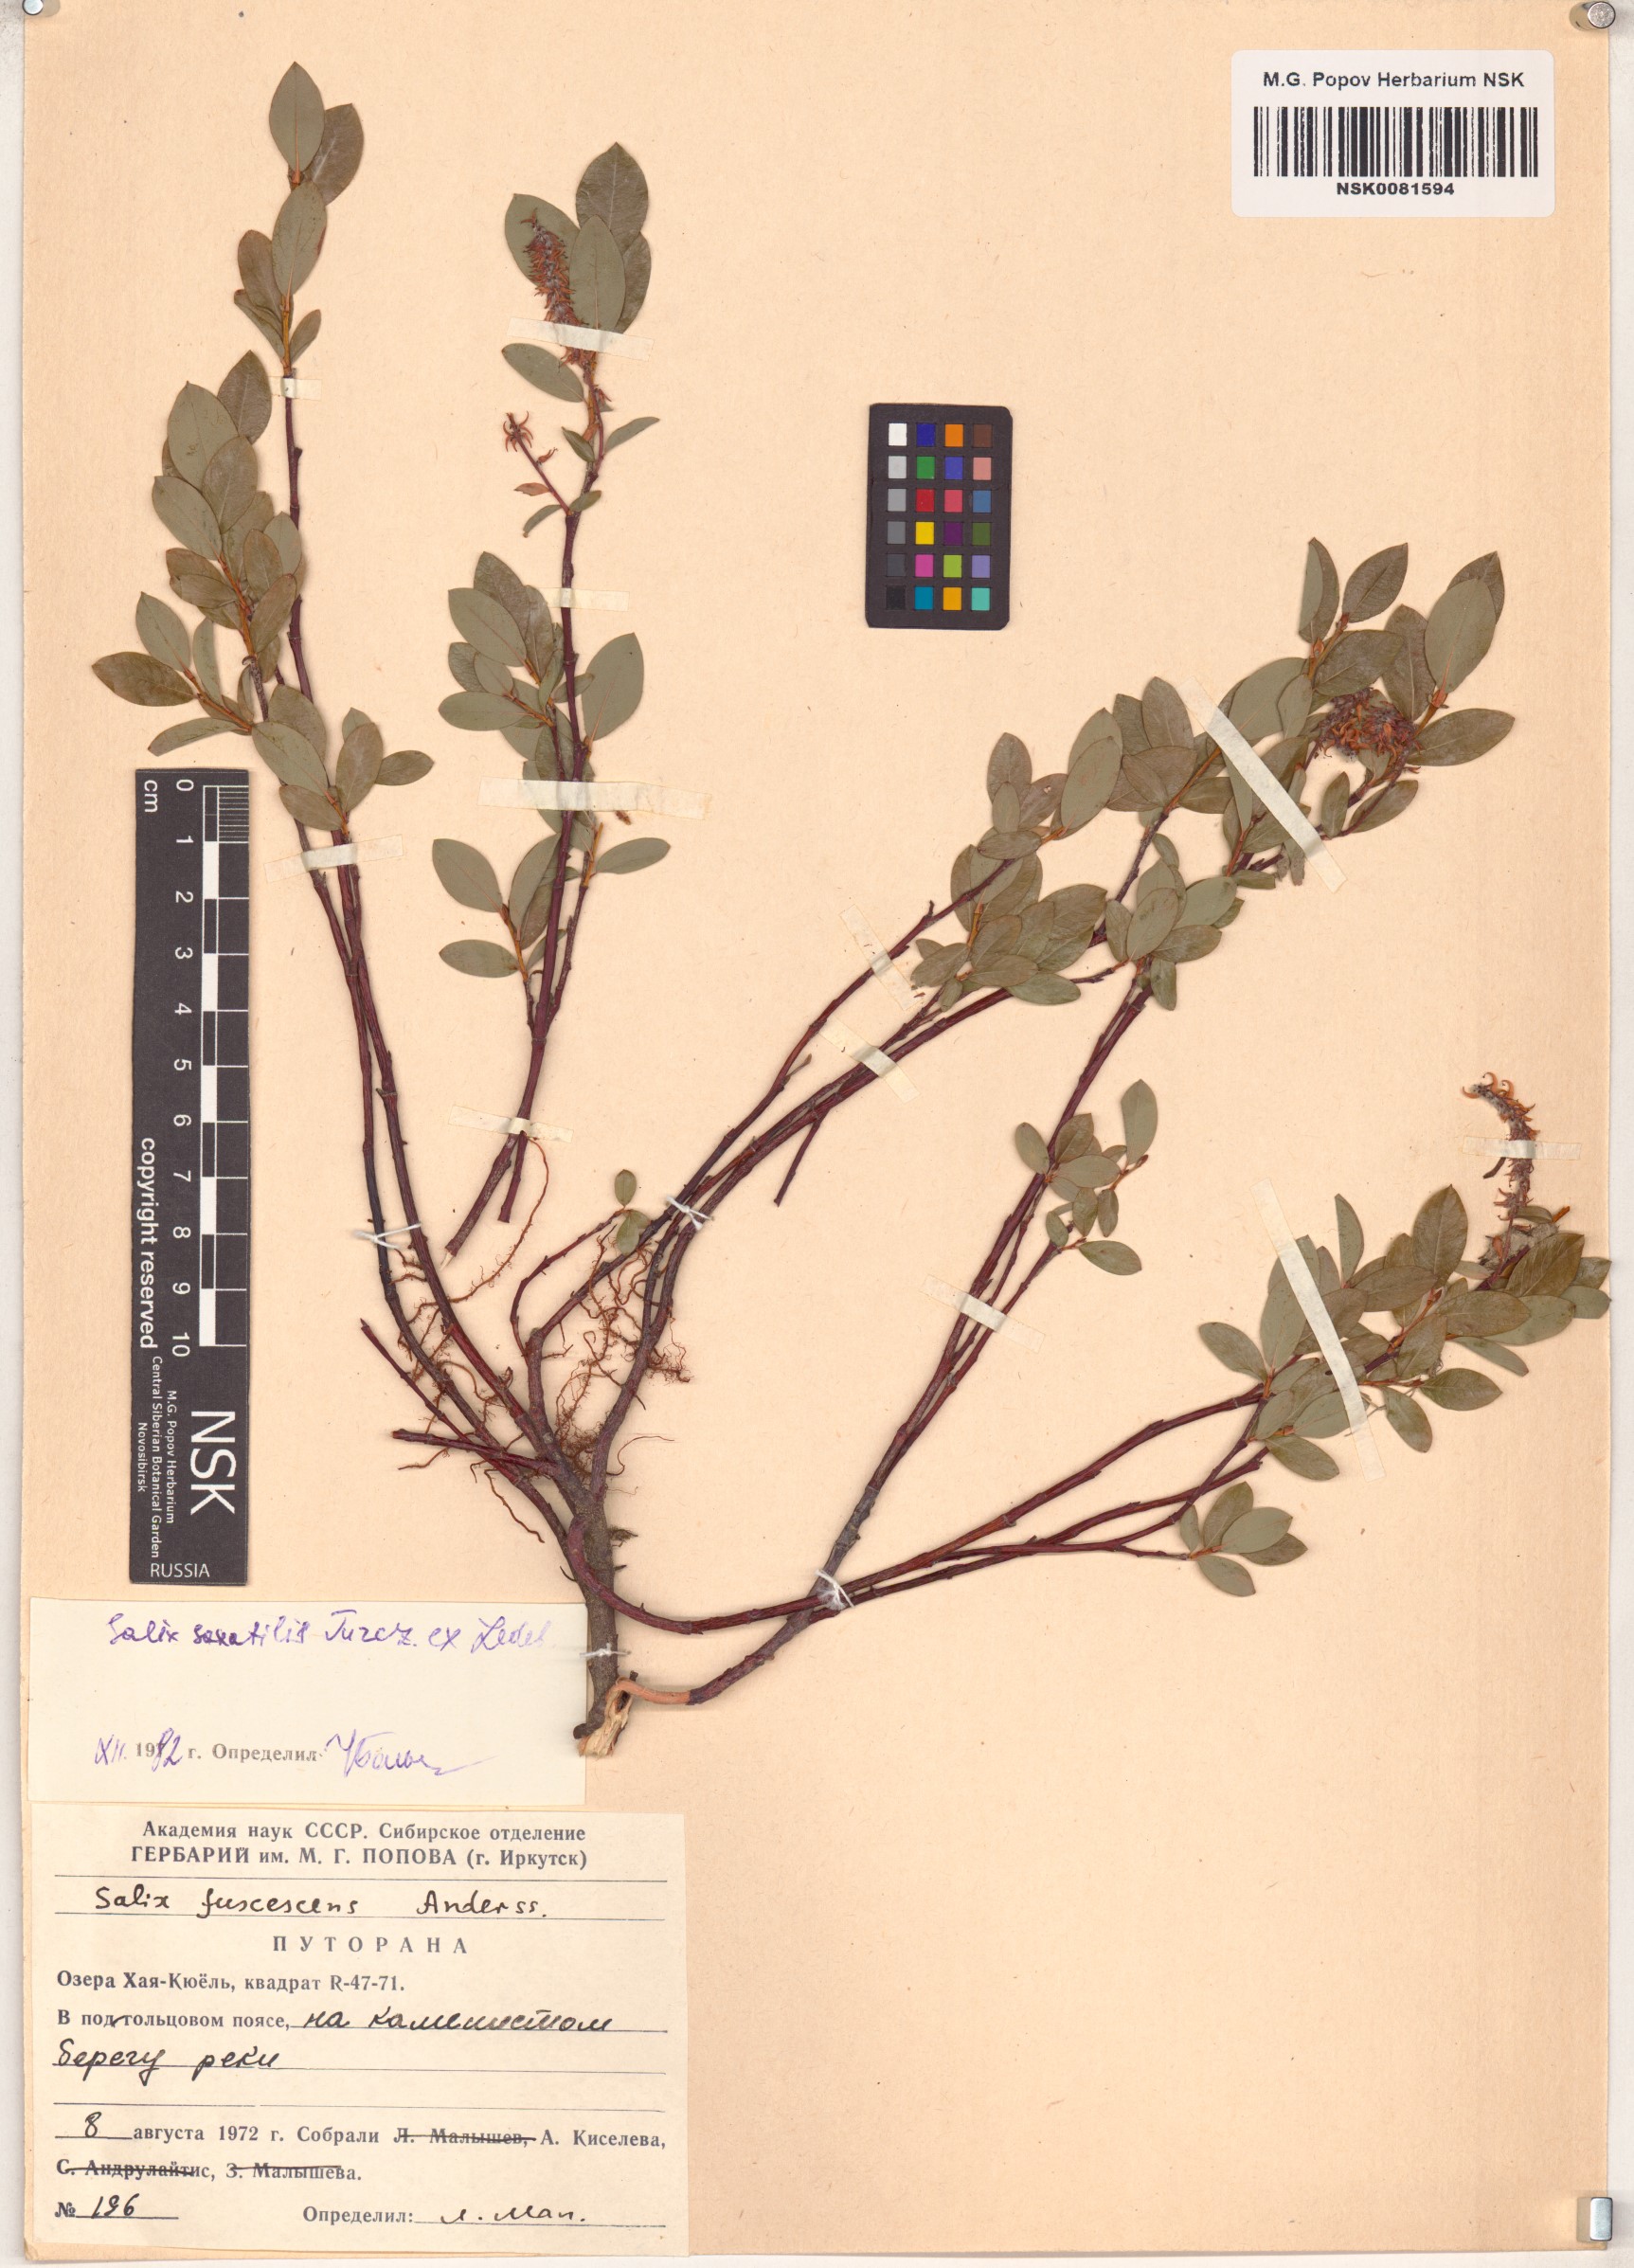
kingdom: Plantae
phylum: Tracheophyta
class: Magnoliopsida
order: Malpighiales
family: Salicaceae
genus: Salix
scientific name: Salix saxatilis
